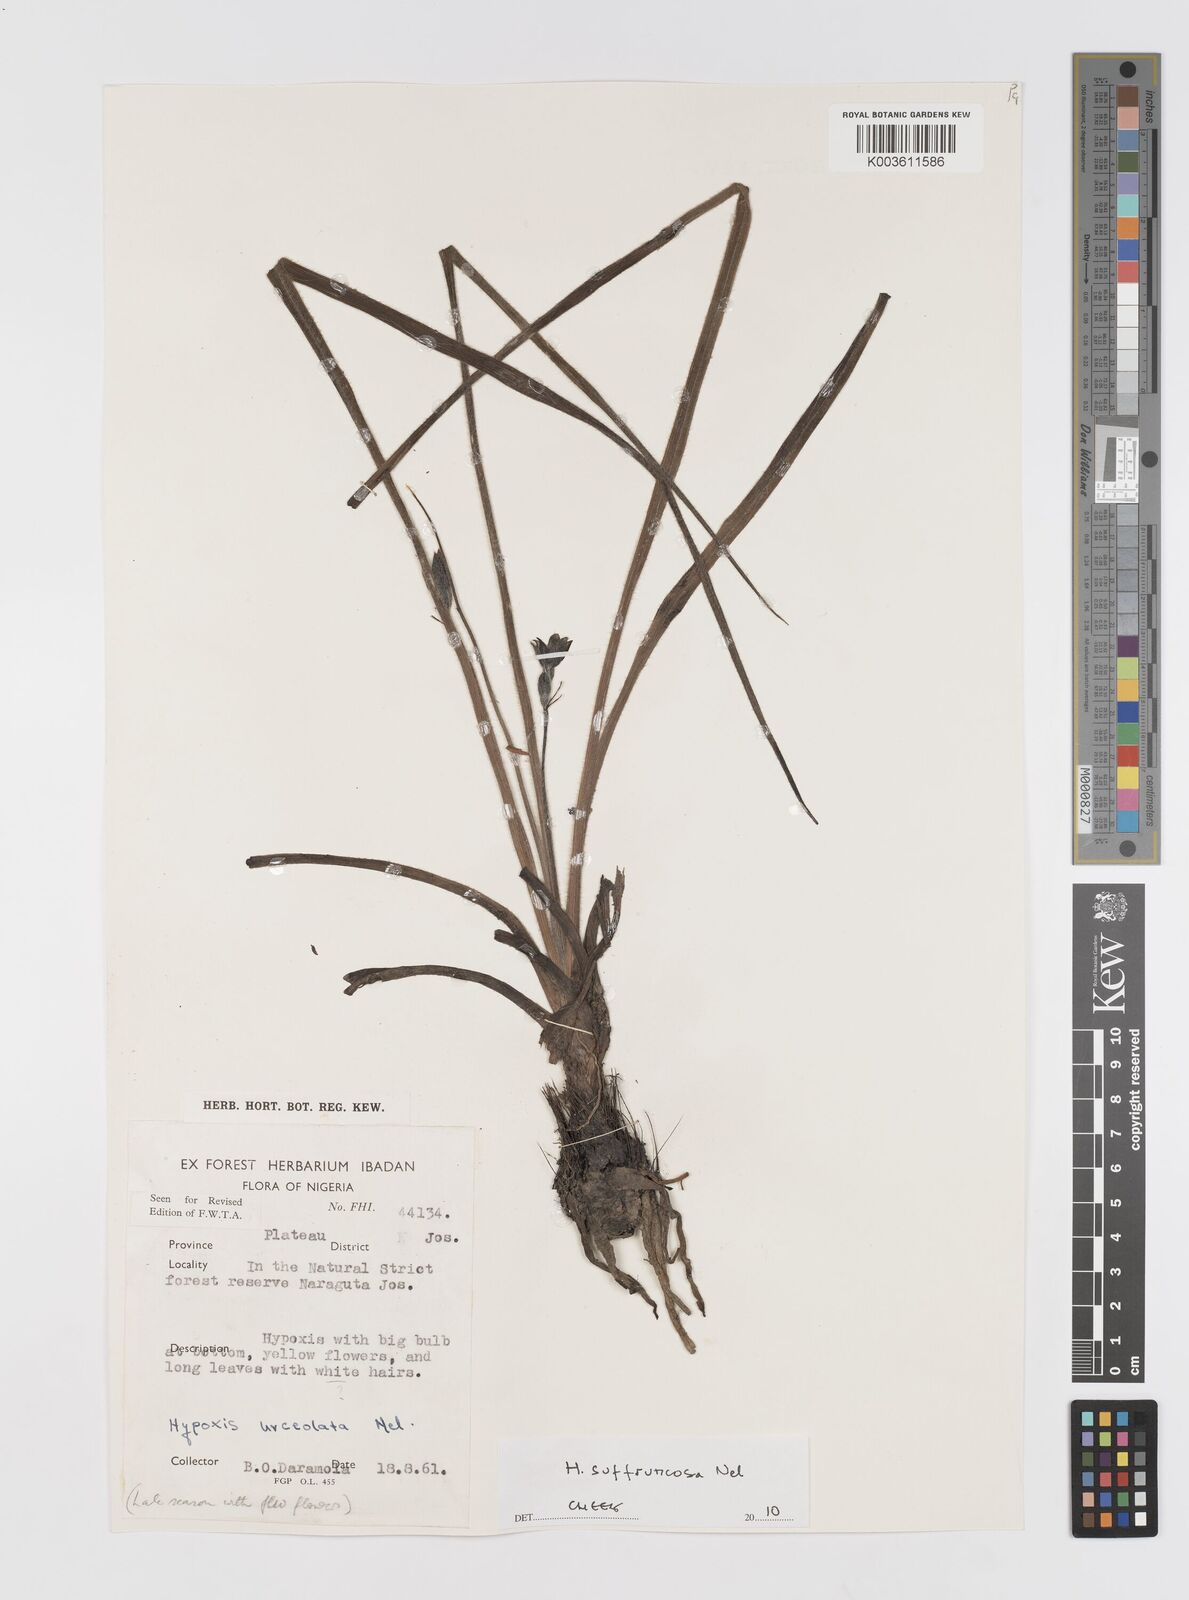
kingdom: Plantae
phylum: Tracheophyta
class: Liliopsida
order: Asparagales
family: Hypoxidaceae
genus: Hypoxis
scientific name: Hypoxis suffruticosa
